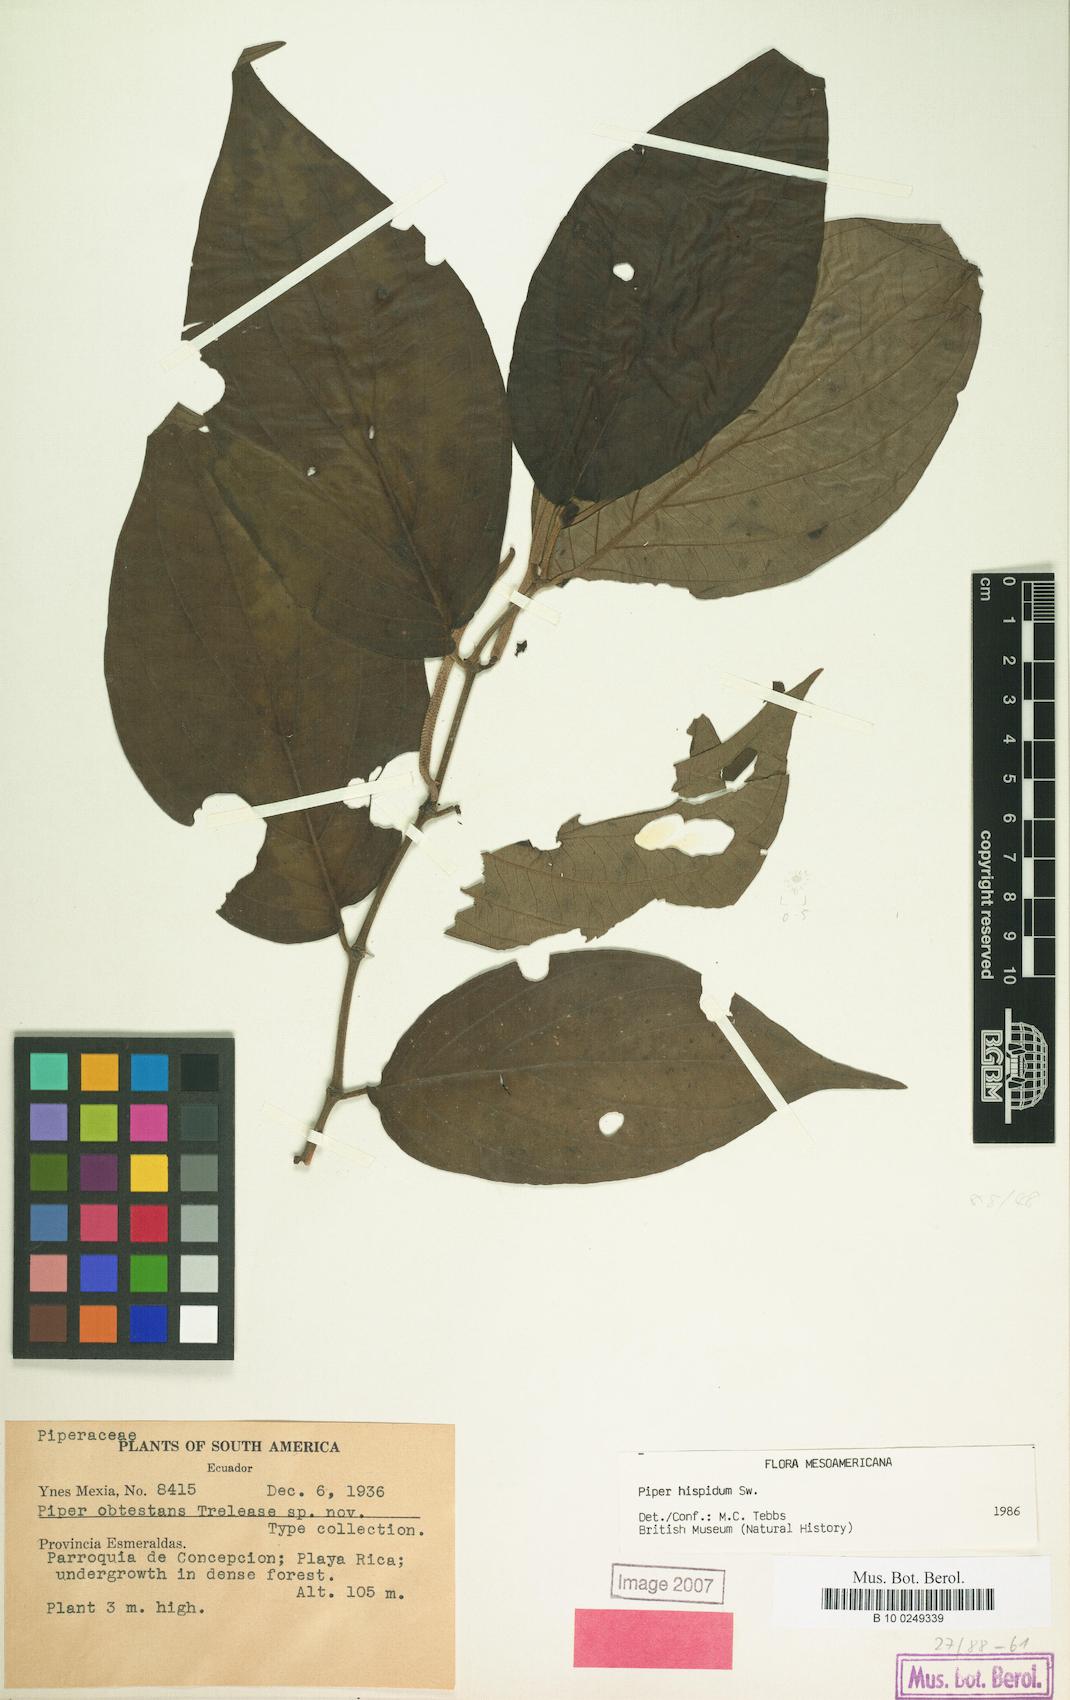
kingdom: Plantae
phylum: Tracheophyta
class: Magnoliopsida
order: Piperales
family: Piperaceae
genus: Piper
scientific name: Piper hispidum
